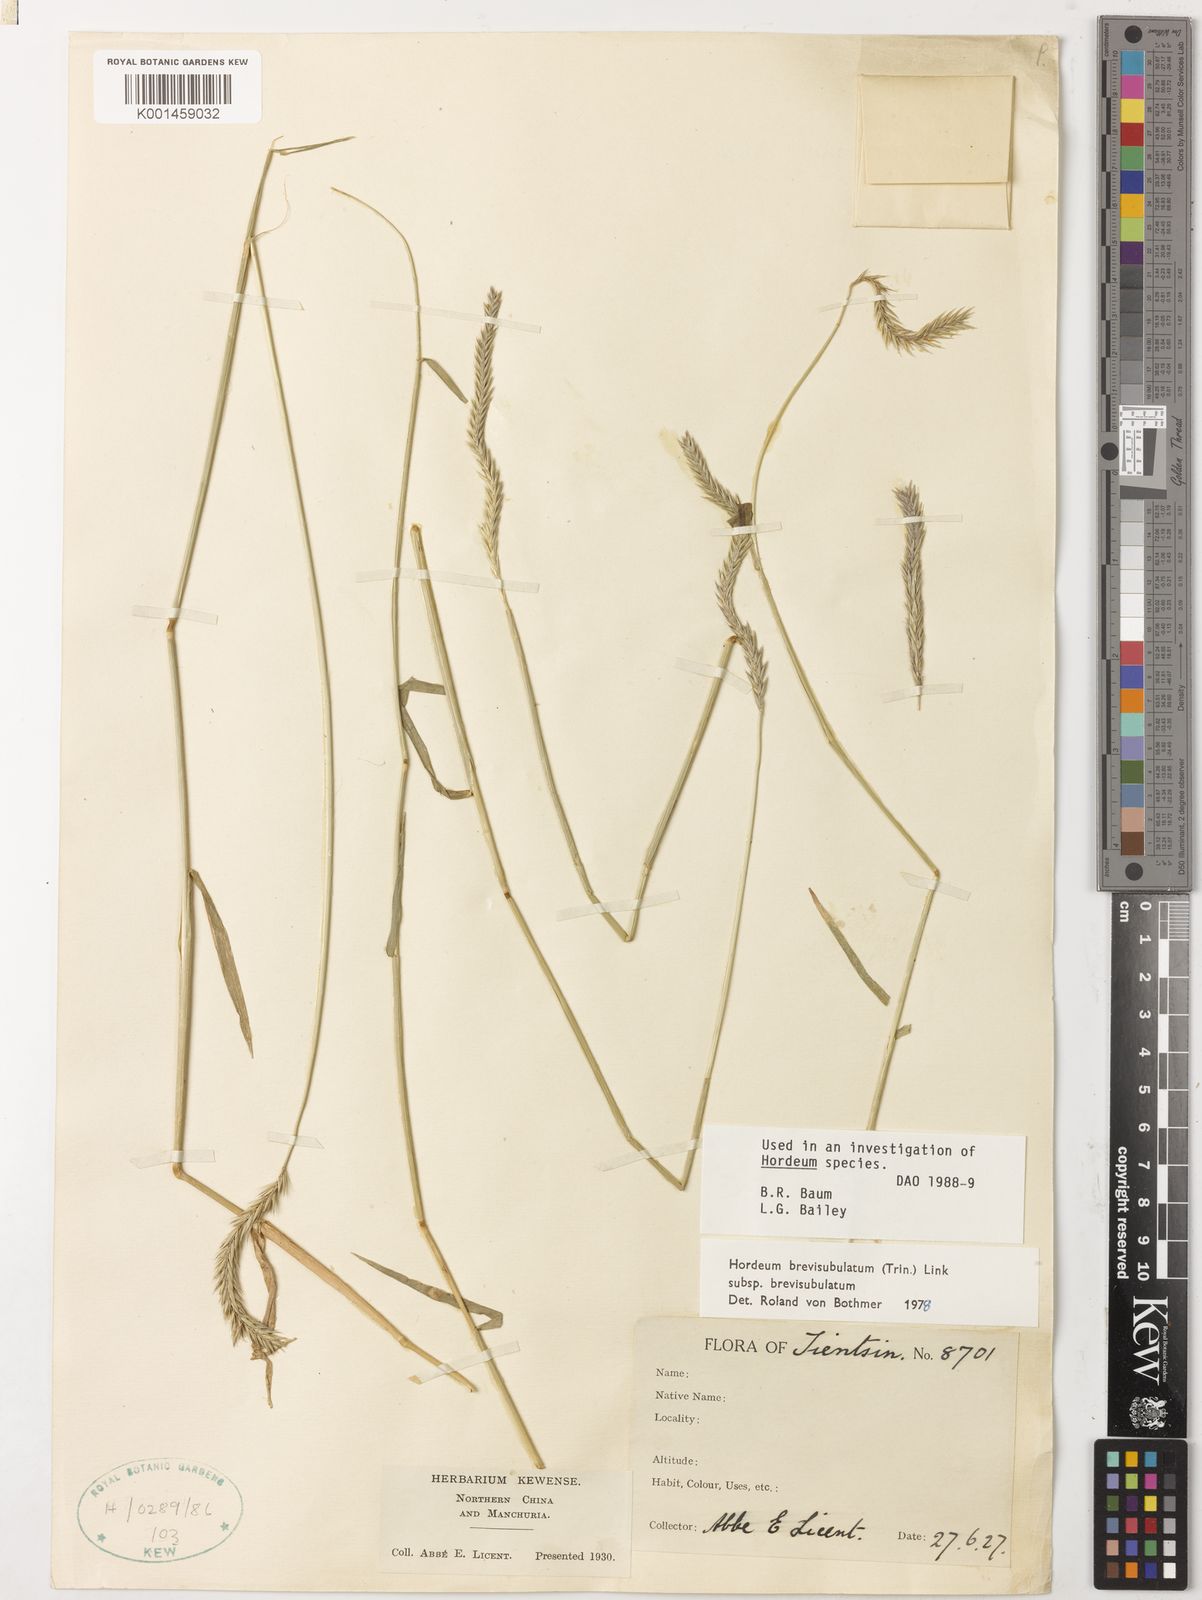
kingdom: Plantae
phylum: Tracheophyta
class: Liliopsida
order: Poales
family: Poaceae
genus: Hordeum
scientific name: Hordeum brevisubulatum
